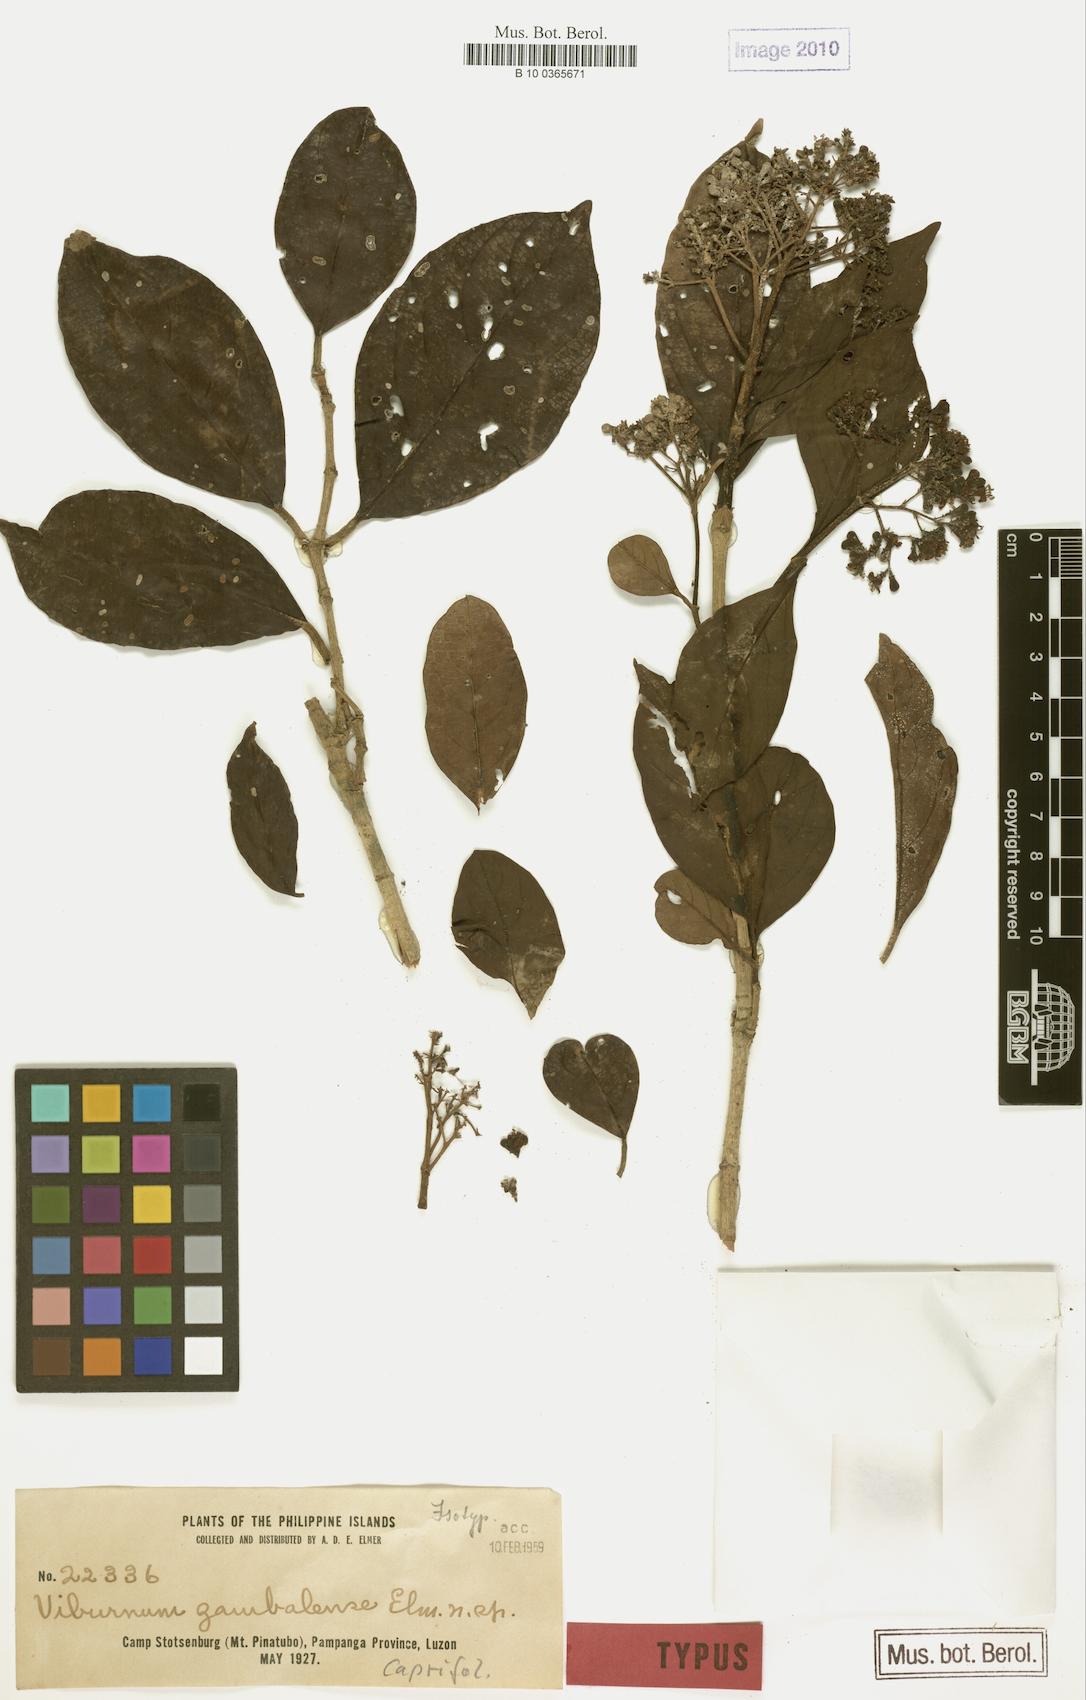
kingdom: Plantae
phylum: Tracheophyta
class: Magnoliopsida
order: Dipsacales
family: Viburnaceae
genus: Viburnum
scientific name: Viburnum
